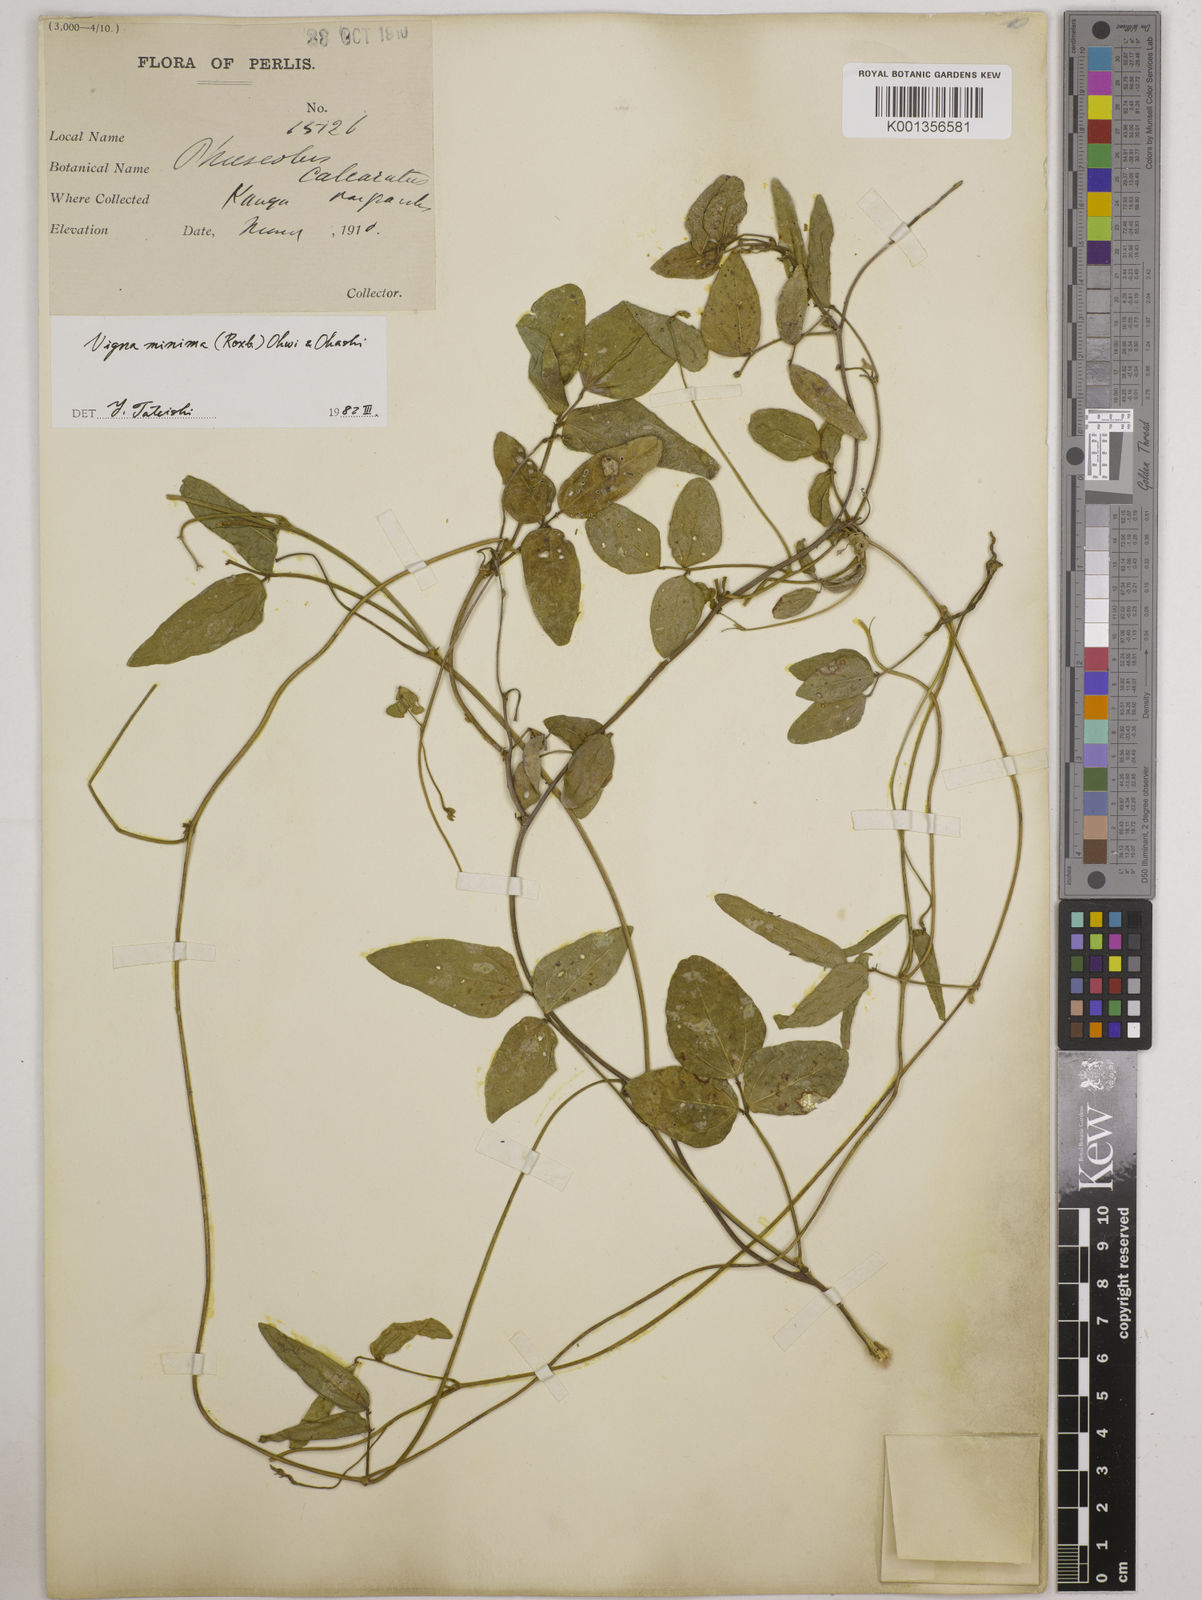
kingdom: Plantae
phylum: Tracheophyta
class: Magnoliopsida
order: Fabales
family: Fabaceae
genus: Vigna
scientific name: Vigna minima
